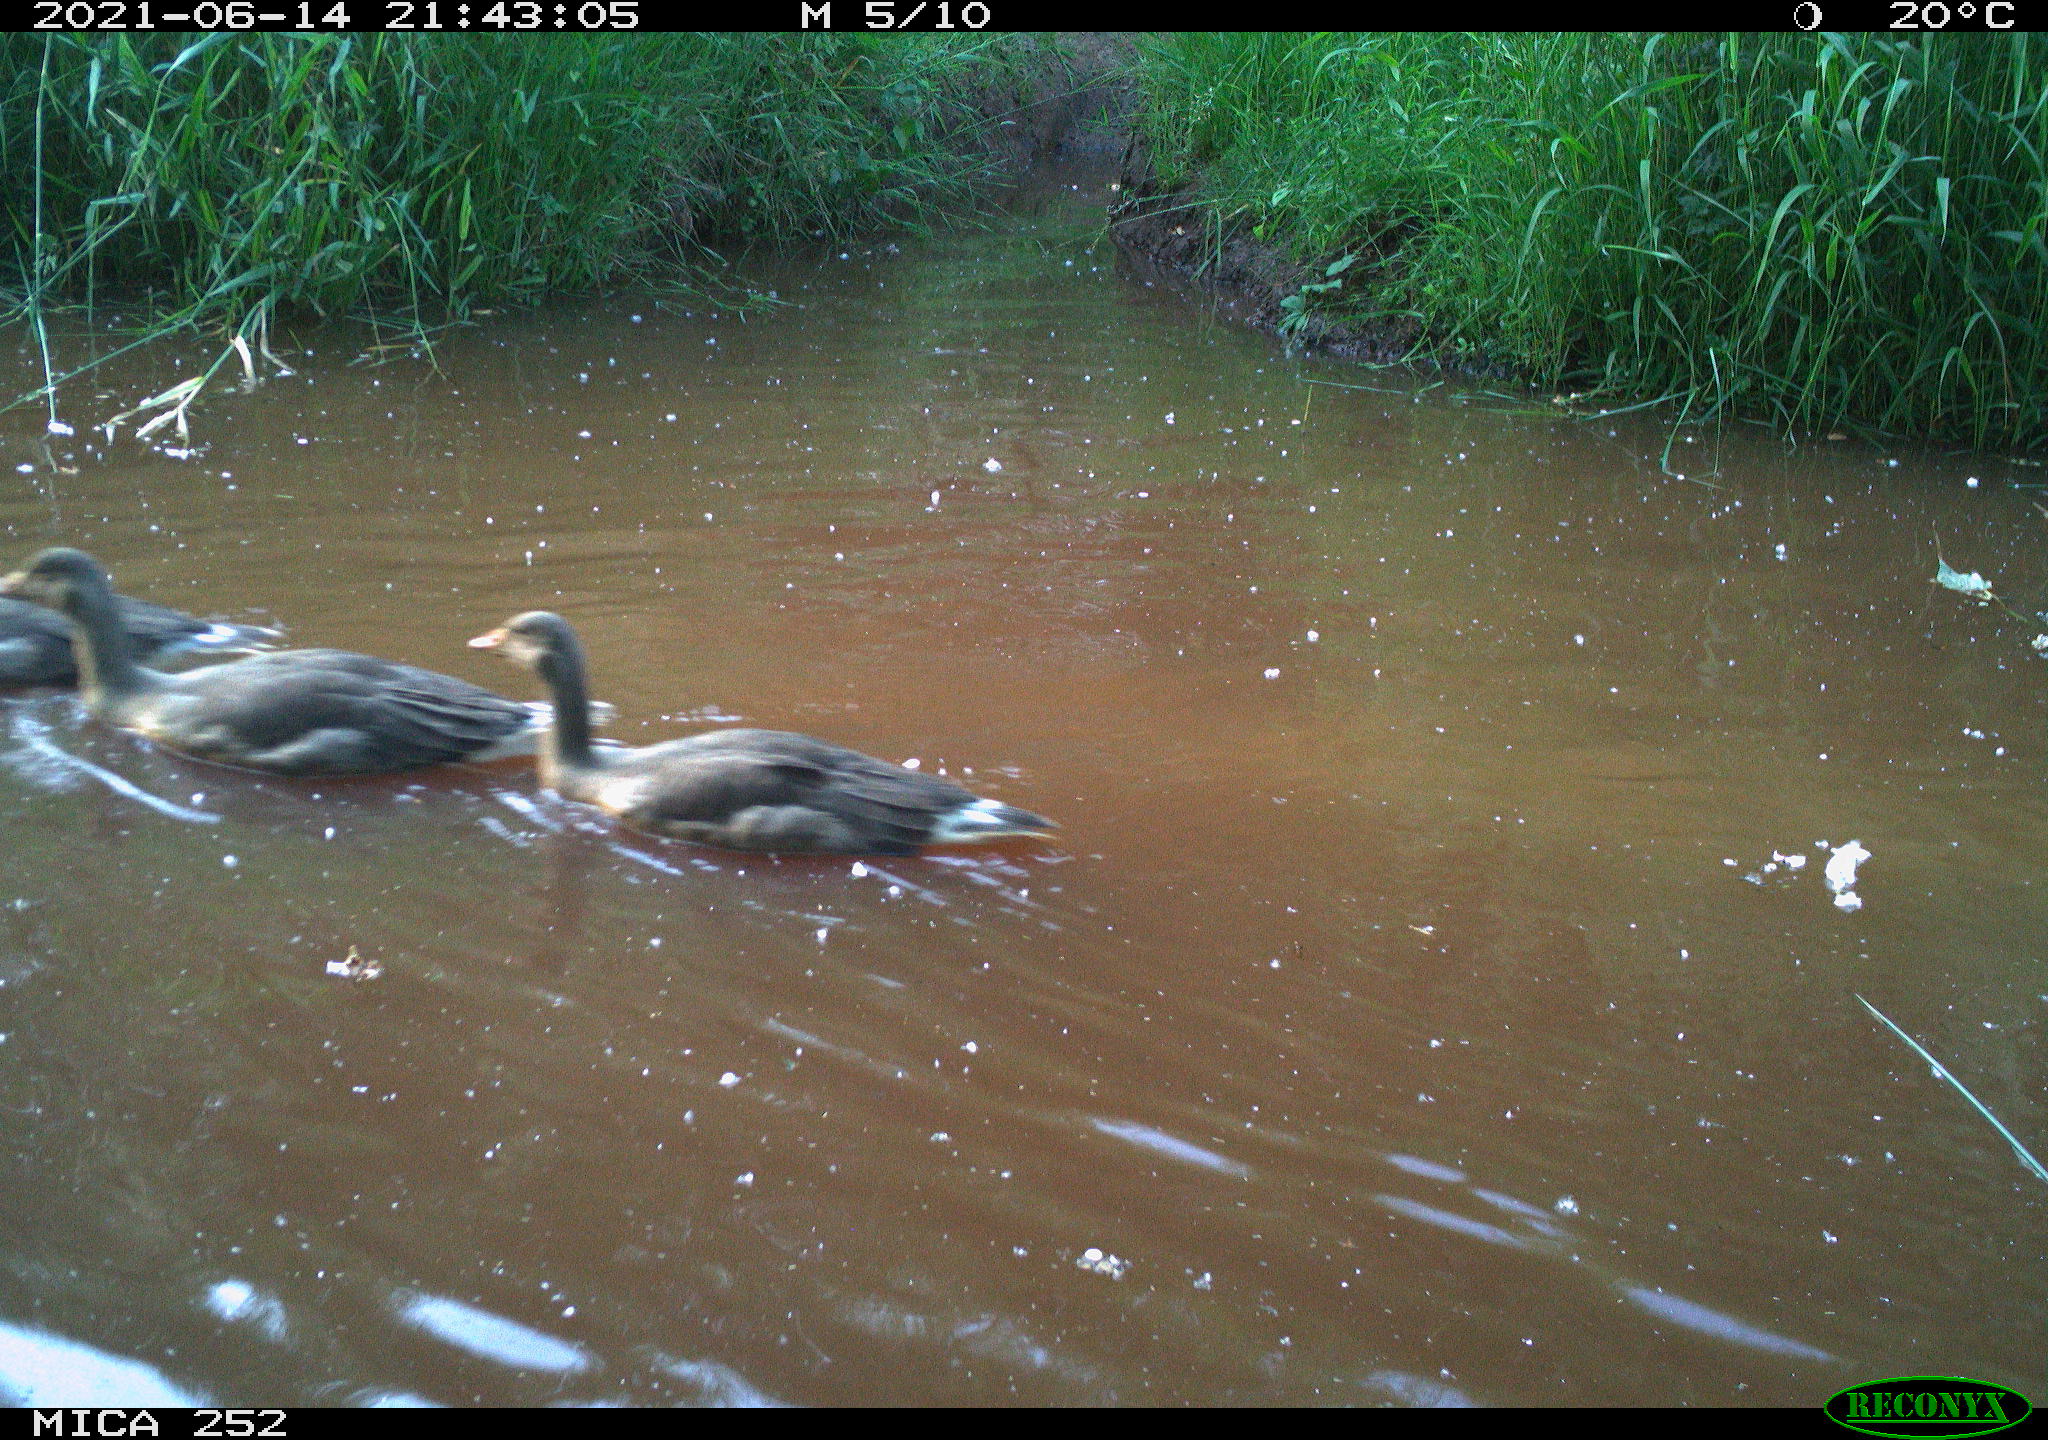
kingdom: Animalia
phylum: Chordata
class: Aves
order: Anseriformes
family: Anatidae
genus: Anser
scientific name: Anser anser
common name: Greylag goose
